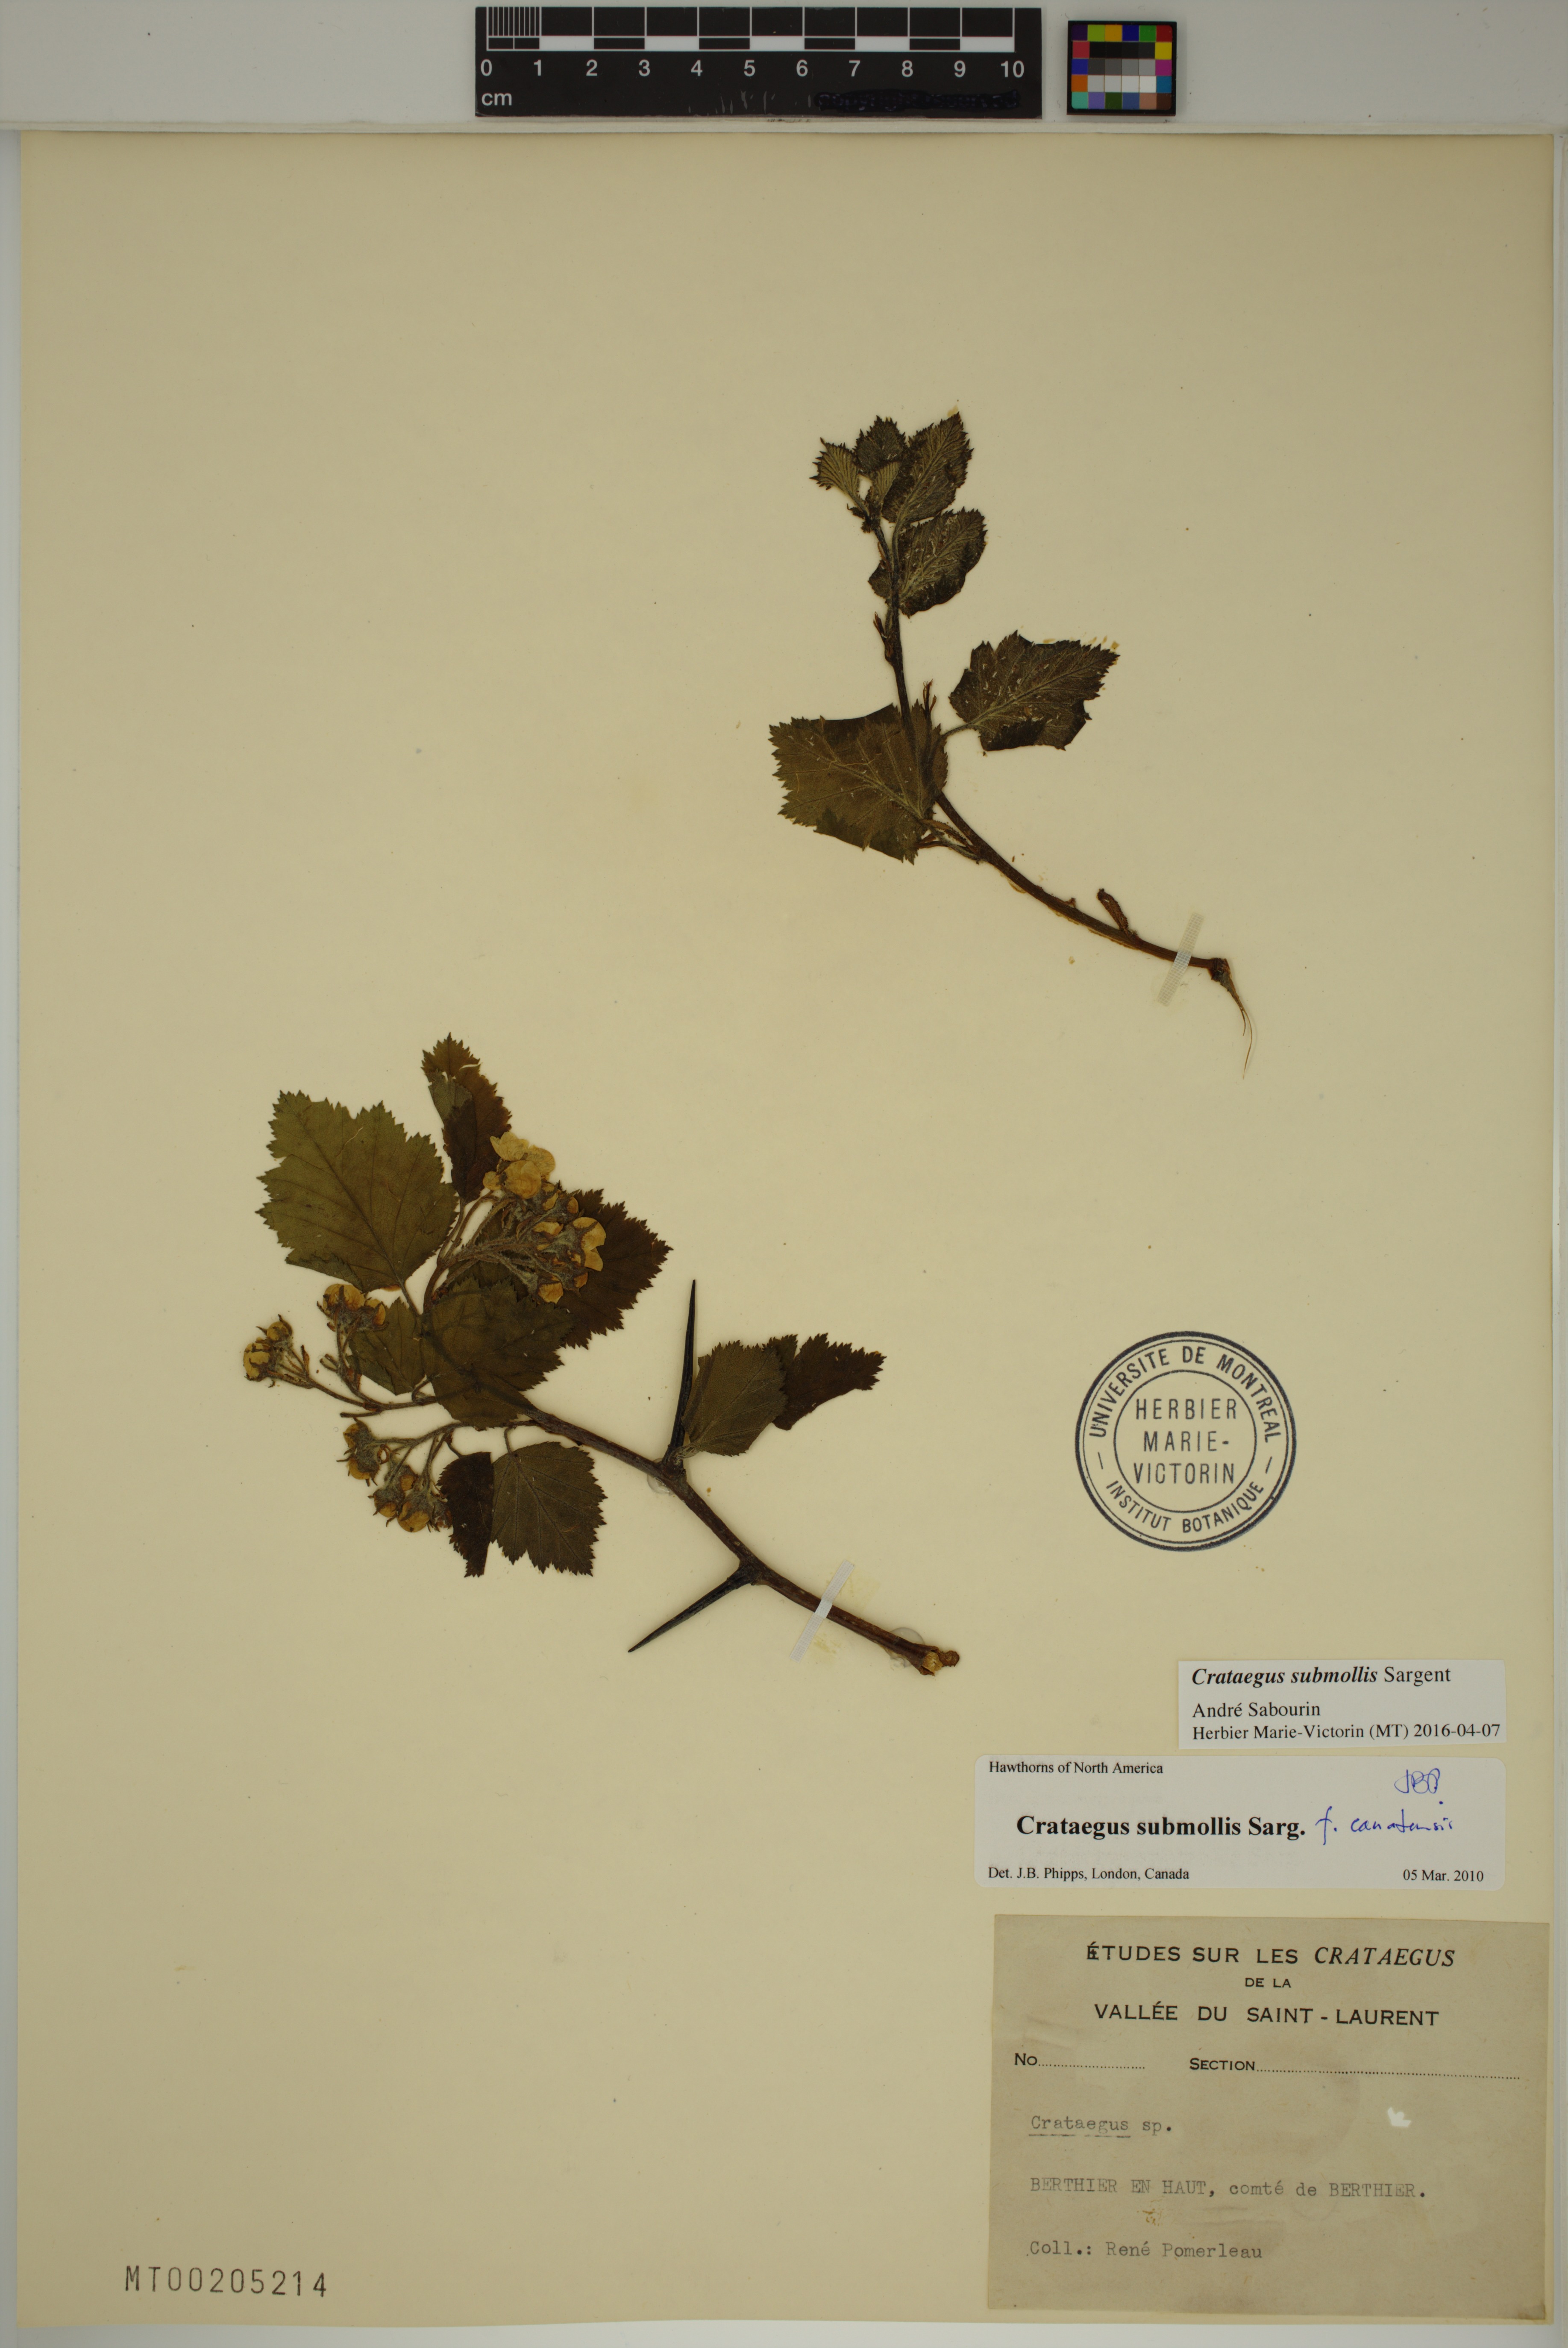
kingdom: Plantae
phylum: Tracheophyta
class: Magnoliopsida
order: Rosales
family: Rosaceae
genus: Crataegus
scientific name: Crataegus submollis
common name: Hairy cockspurthorn
